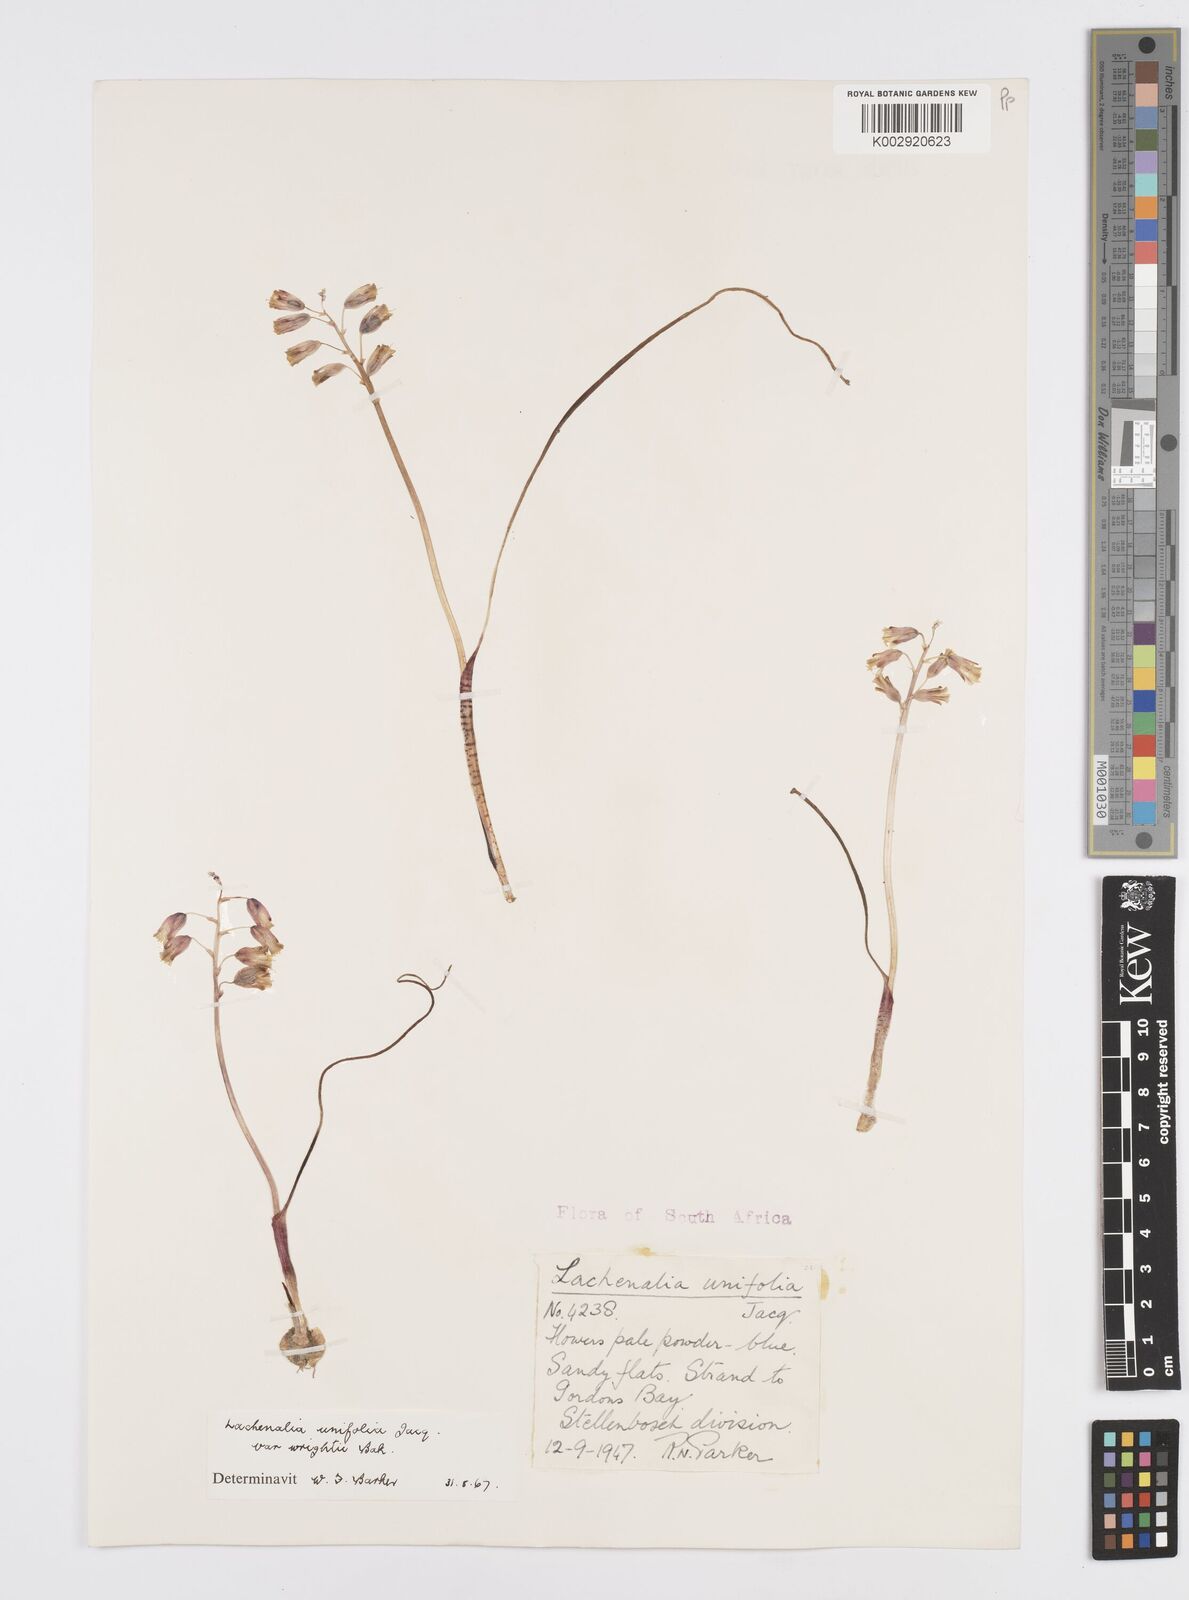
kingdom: Plantae
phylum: Tracheophyta
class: Liliopsida
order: Asparagales
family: Asparagaceae
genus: Lachenalia
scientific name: Lachenalia unifolia
